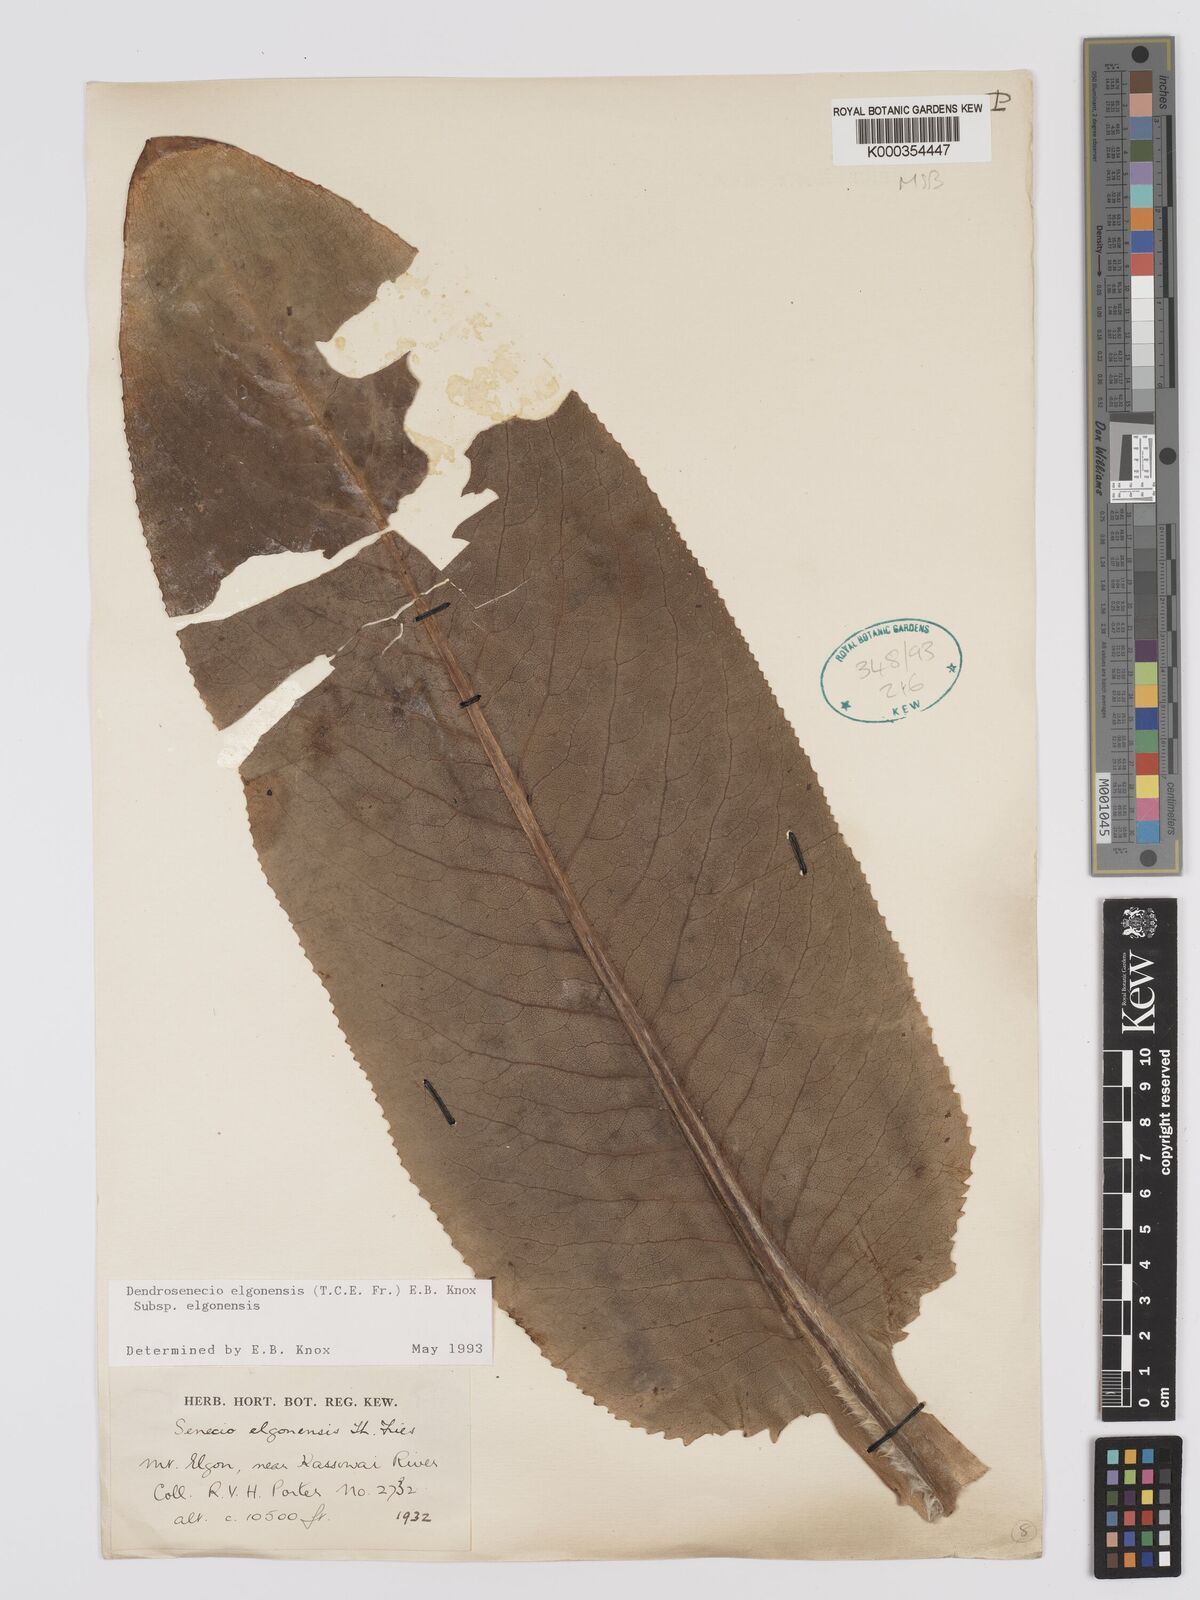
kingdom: Plantae
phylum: Tracheophyta
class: Magnoliopsida
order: Asterales
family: Asteraceae
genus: Dendrosenecio
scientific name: Dendrosenecio elgonensis
